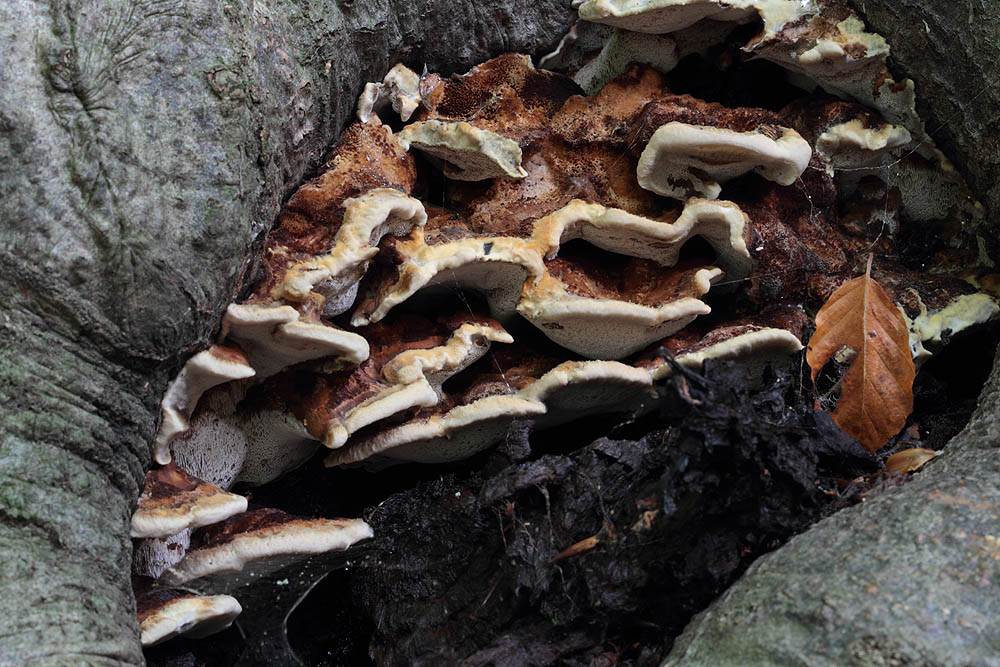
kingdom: Fungi
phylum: Basidiomycota
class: Agaricomycetes
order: Hymenochaetales
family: Hymenochaetaceae
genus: Inonotus
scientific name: Inonotus cuticularis
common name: kroghåret spejlporesvamp
